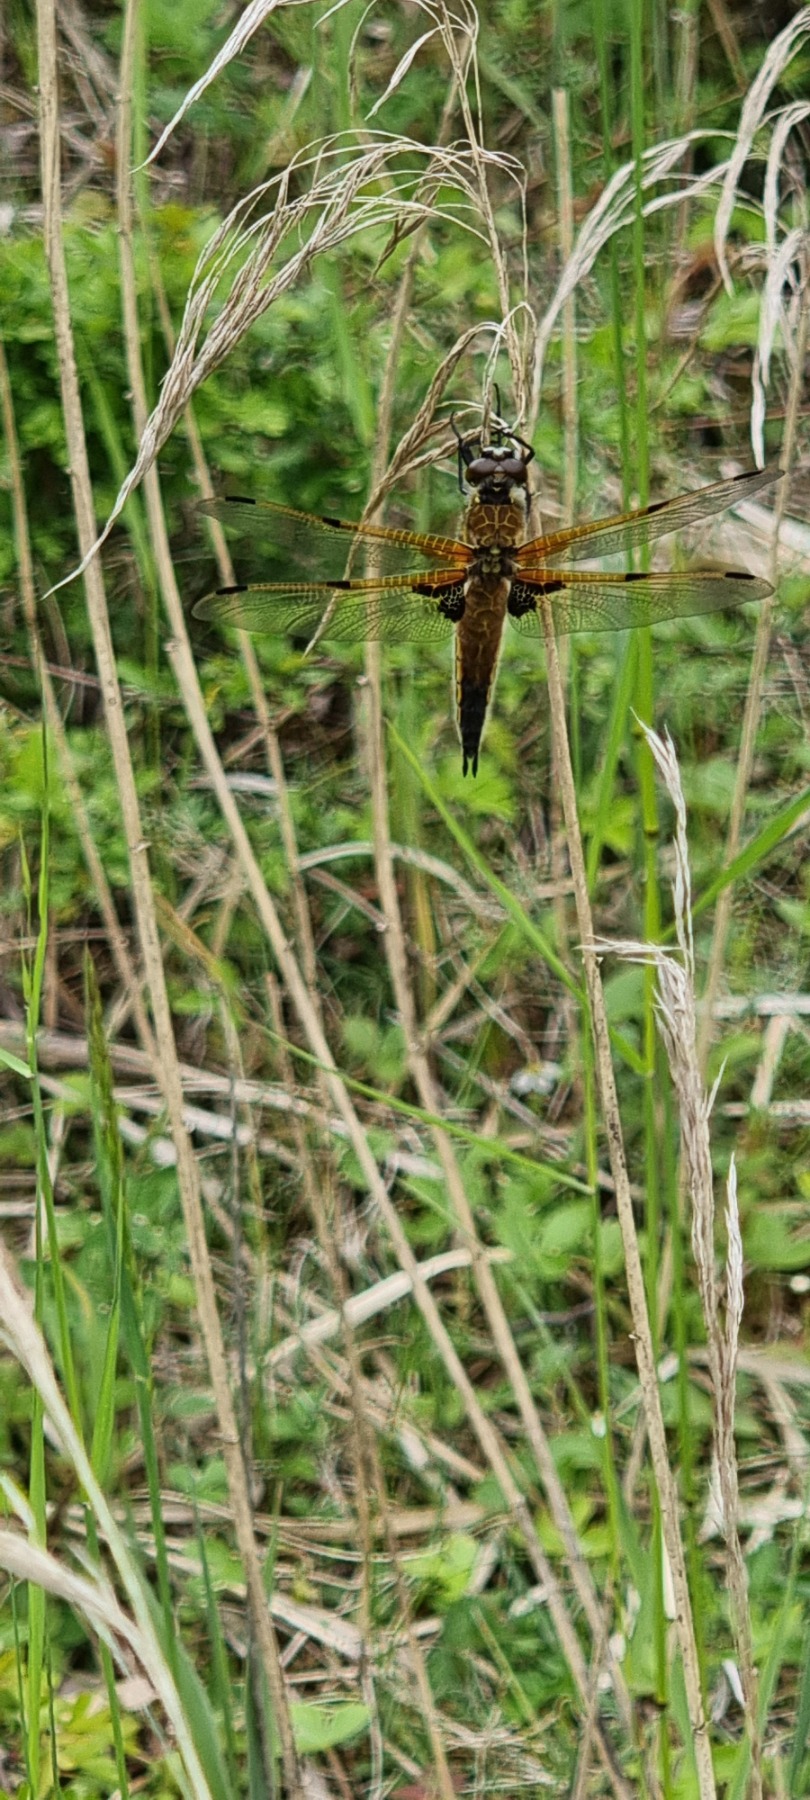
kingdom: Animalia
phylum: Arthropoda
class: Insecta
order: Odonata
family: Libellulidae
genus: Libellula
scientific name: Libellula quadrimaculata
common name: Fireplettet libel
